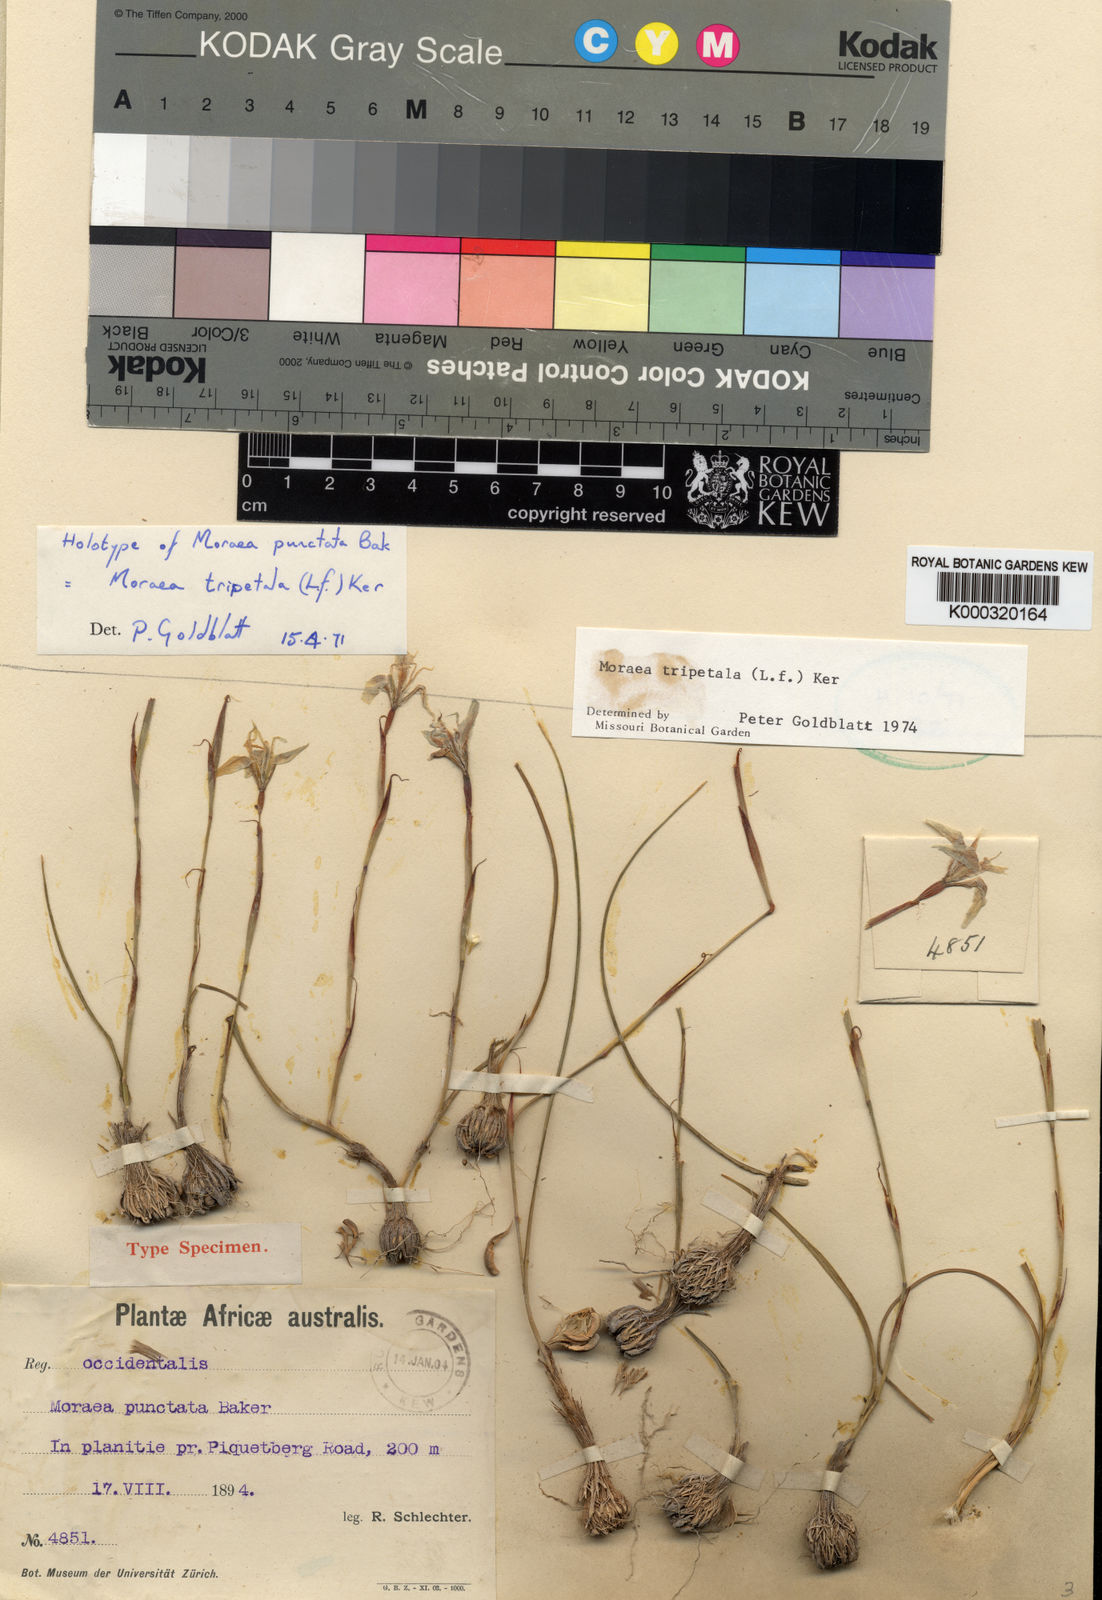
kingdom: Plantae
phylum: Tracheophyta
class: Liliopsida
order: Asparagales
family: Iridaceae
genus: Moraea
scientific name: Moraea tripetala
